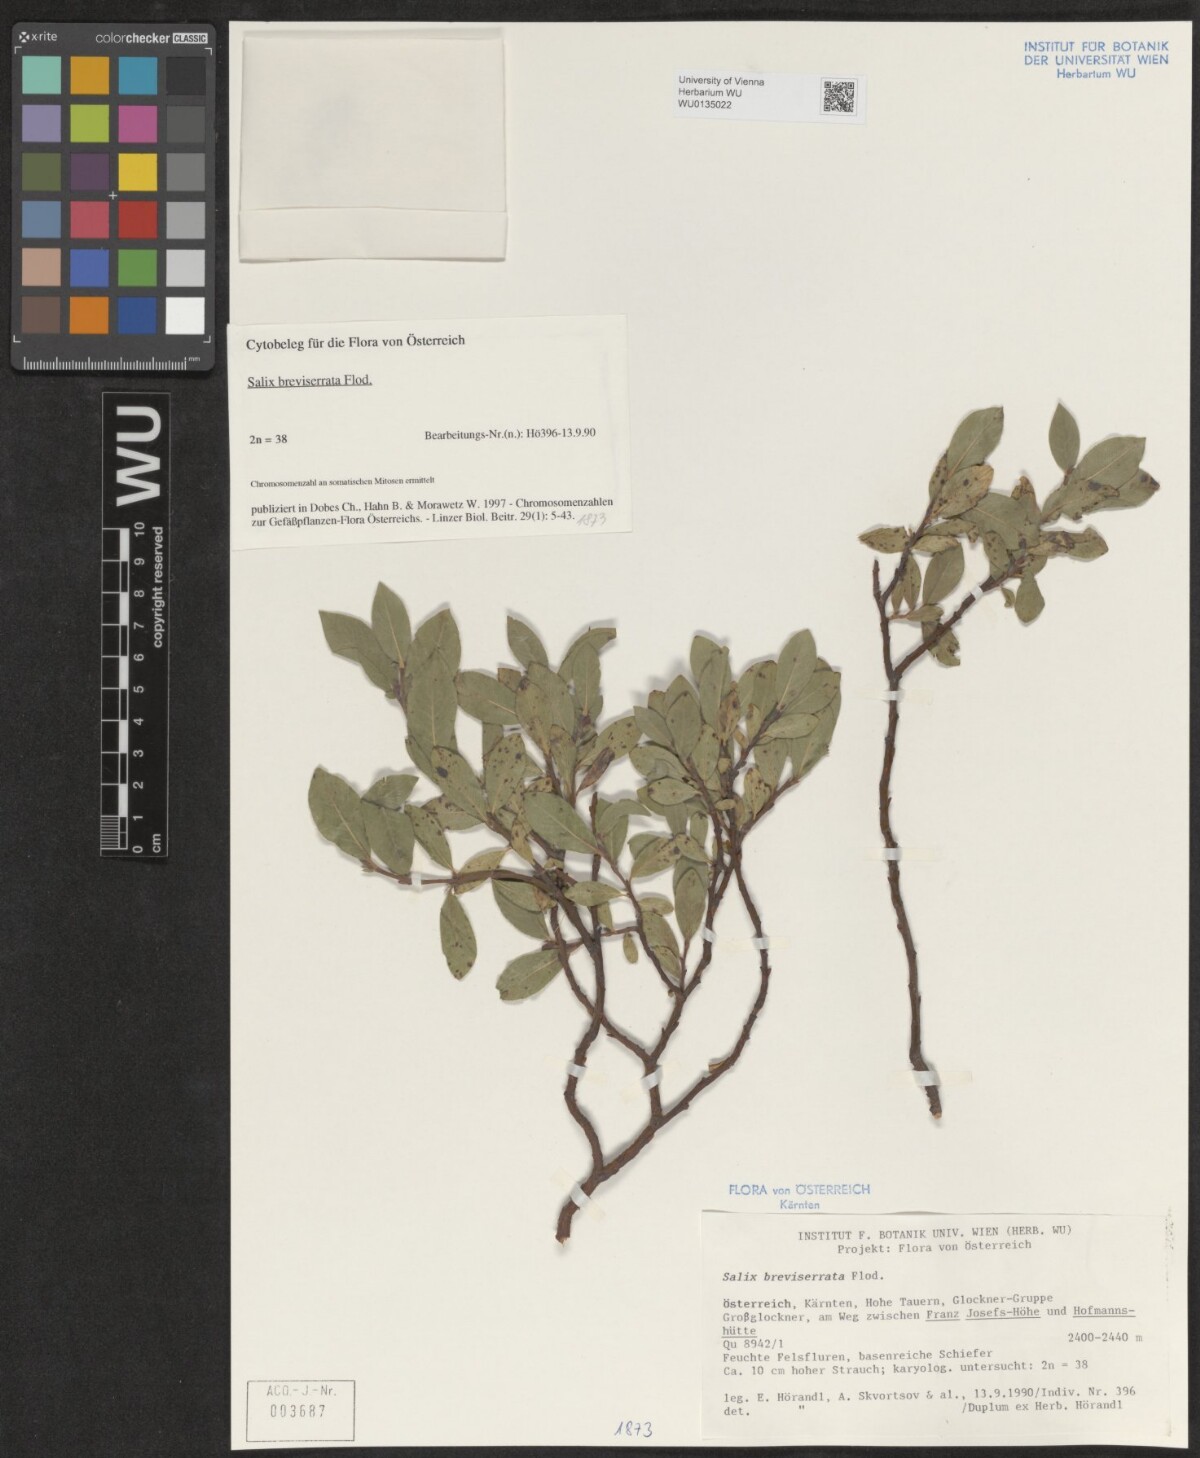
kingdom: Plantae
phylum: Tracheophyta
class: Magnoliopsida
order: Malpighiales
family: Salicaceae
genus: Salix
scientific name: Salix breviserrata
